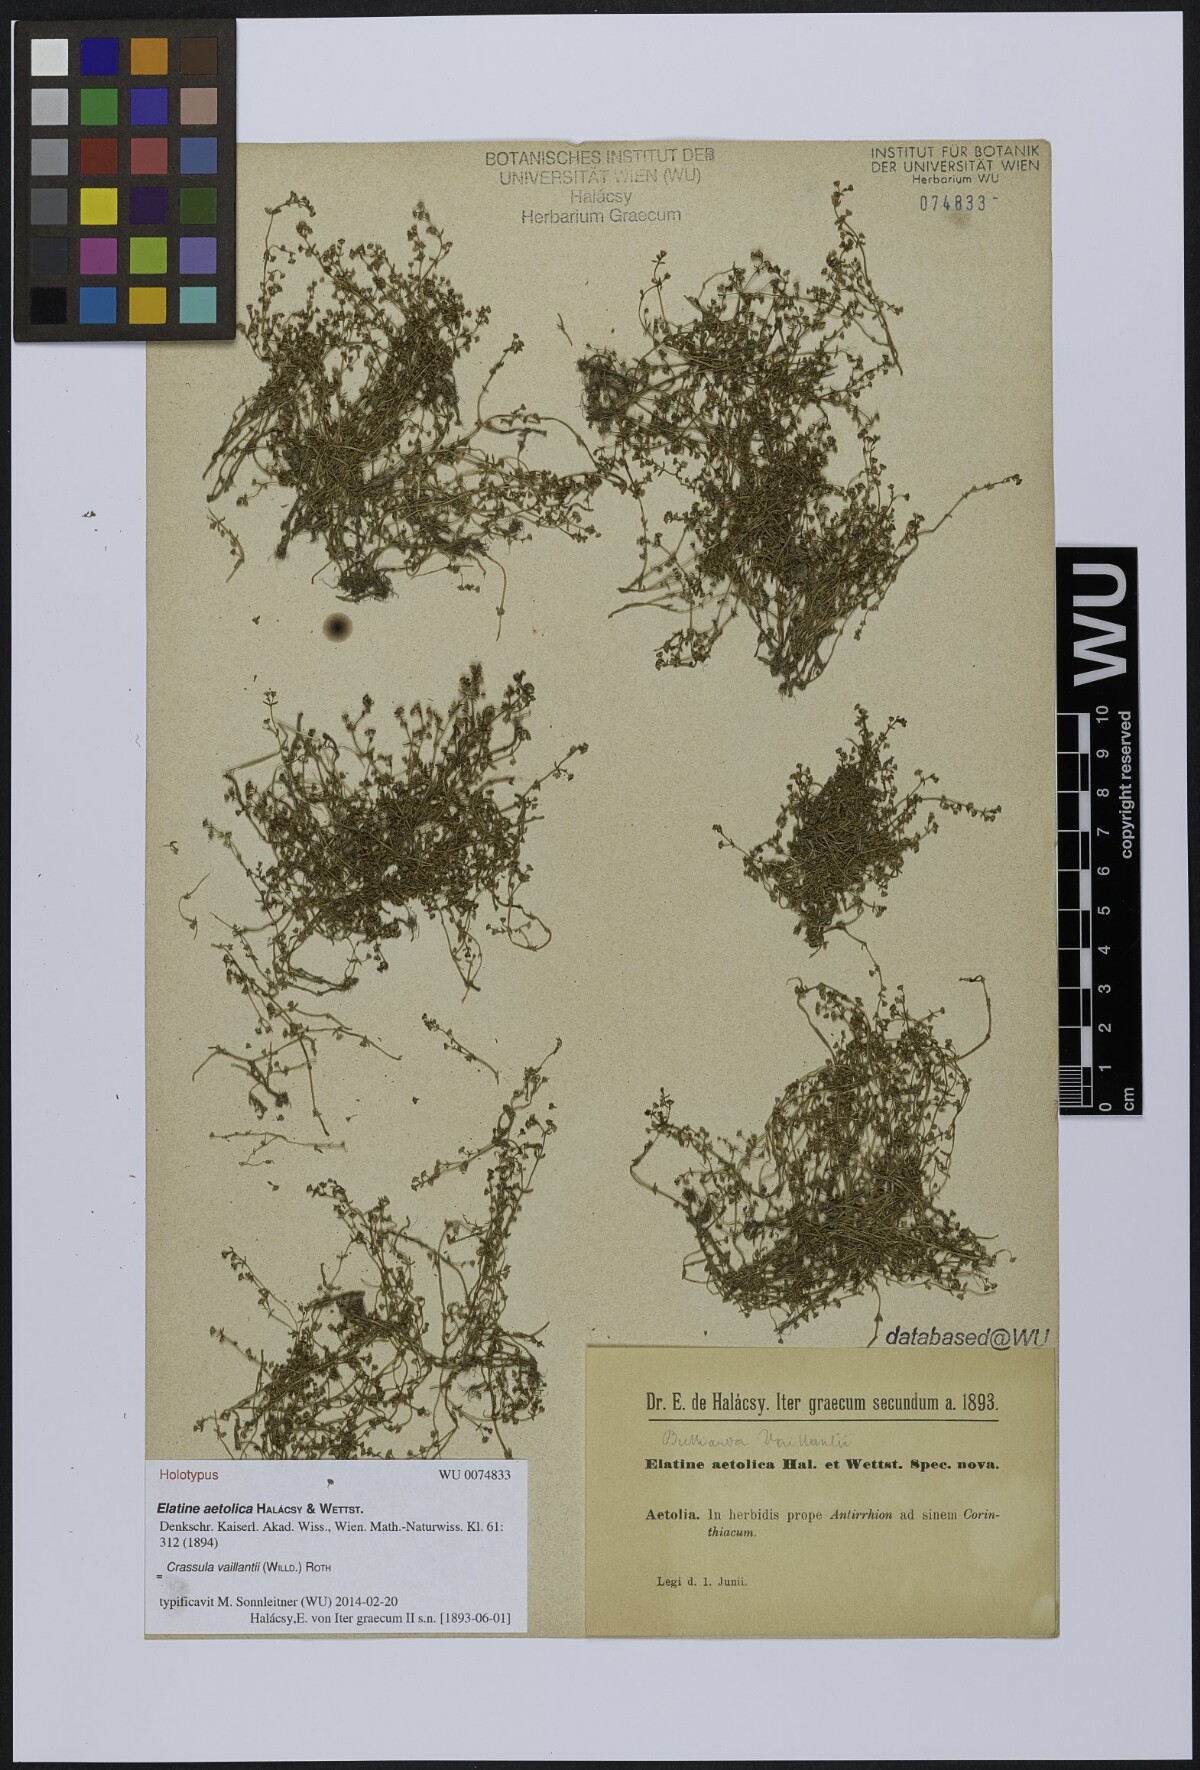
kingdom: Plantae
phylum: Tracheophyta
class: Magnoliopsida
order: Saxifragales
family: Crassulaceae
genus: Crassula
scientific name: Crassula vaillantii
